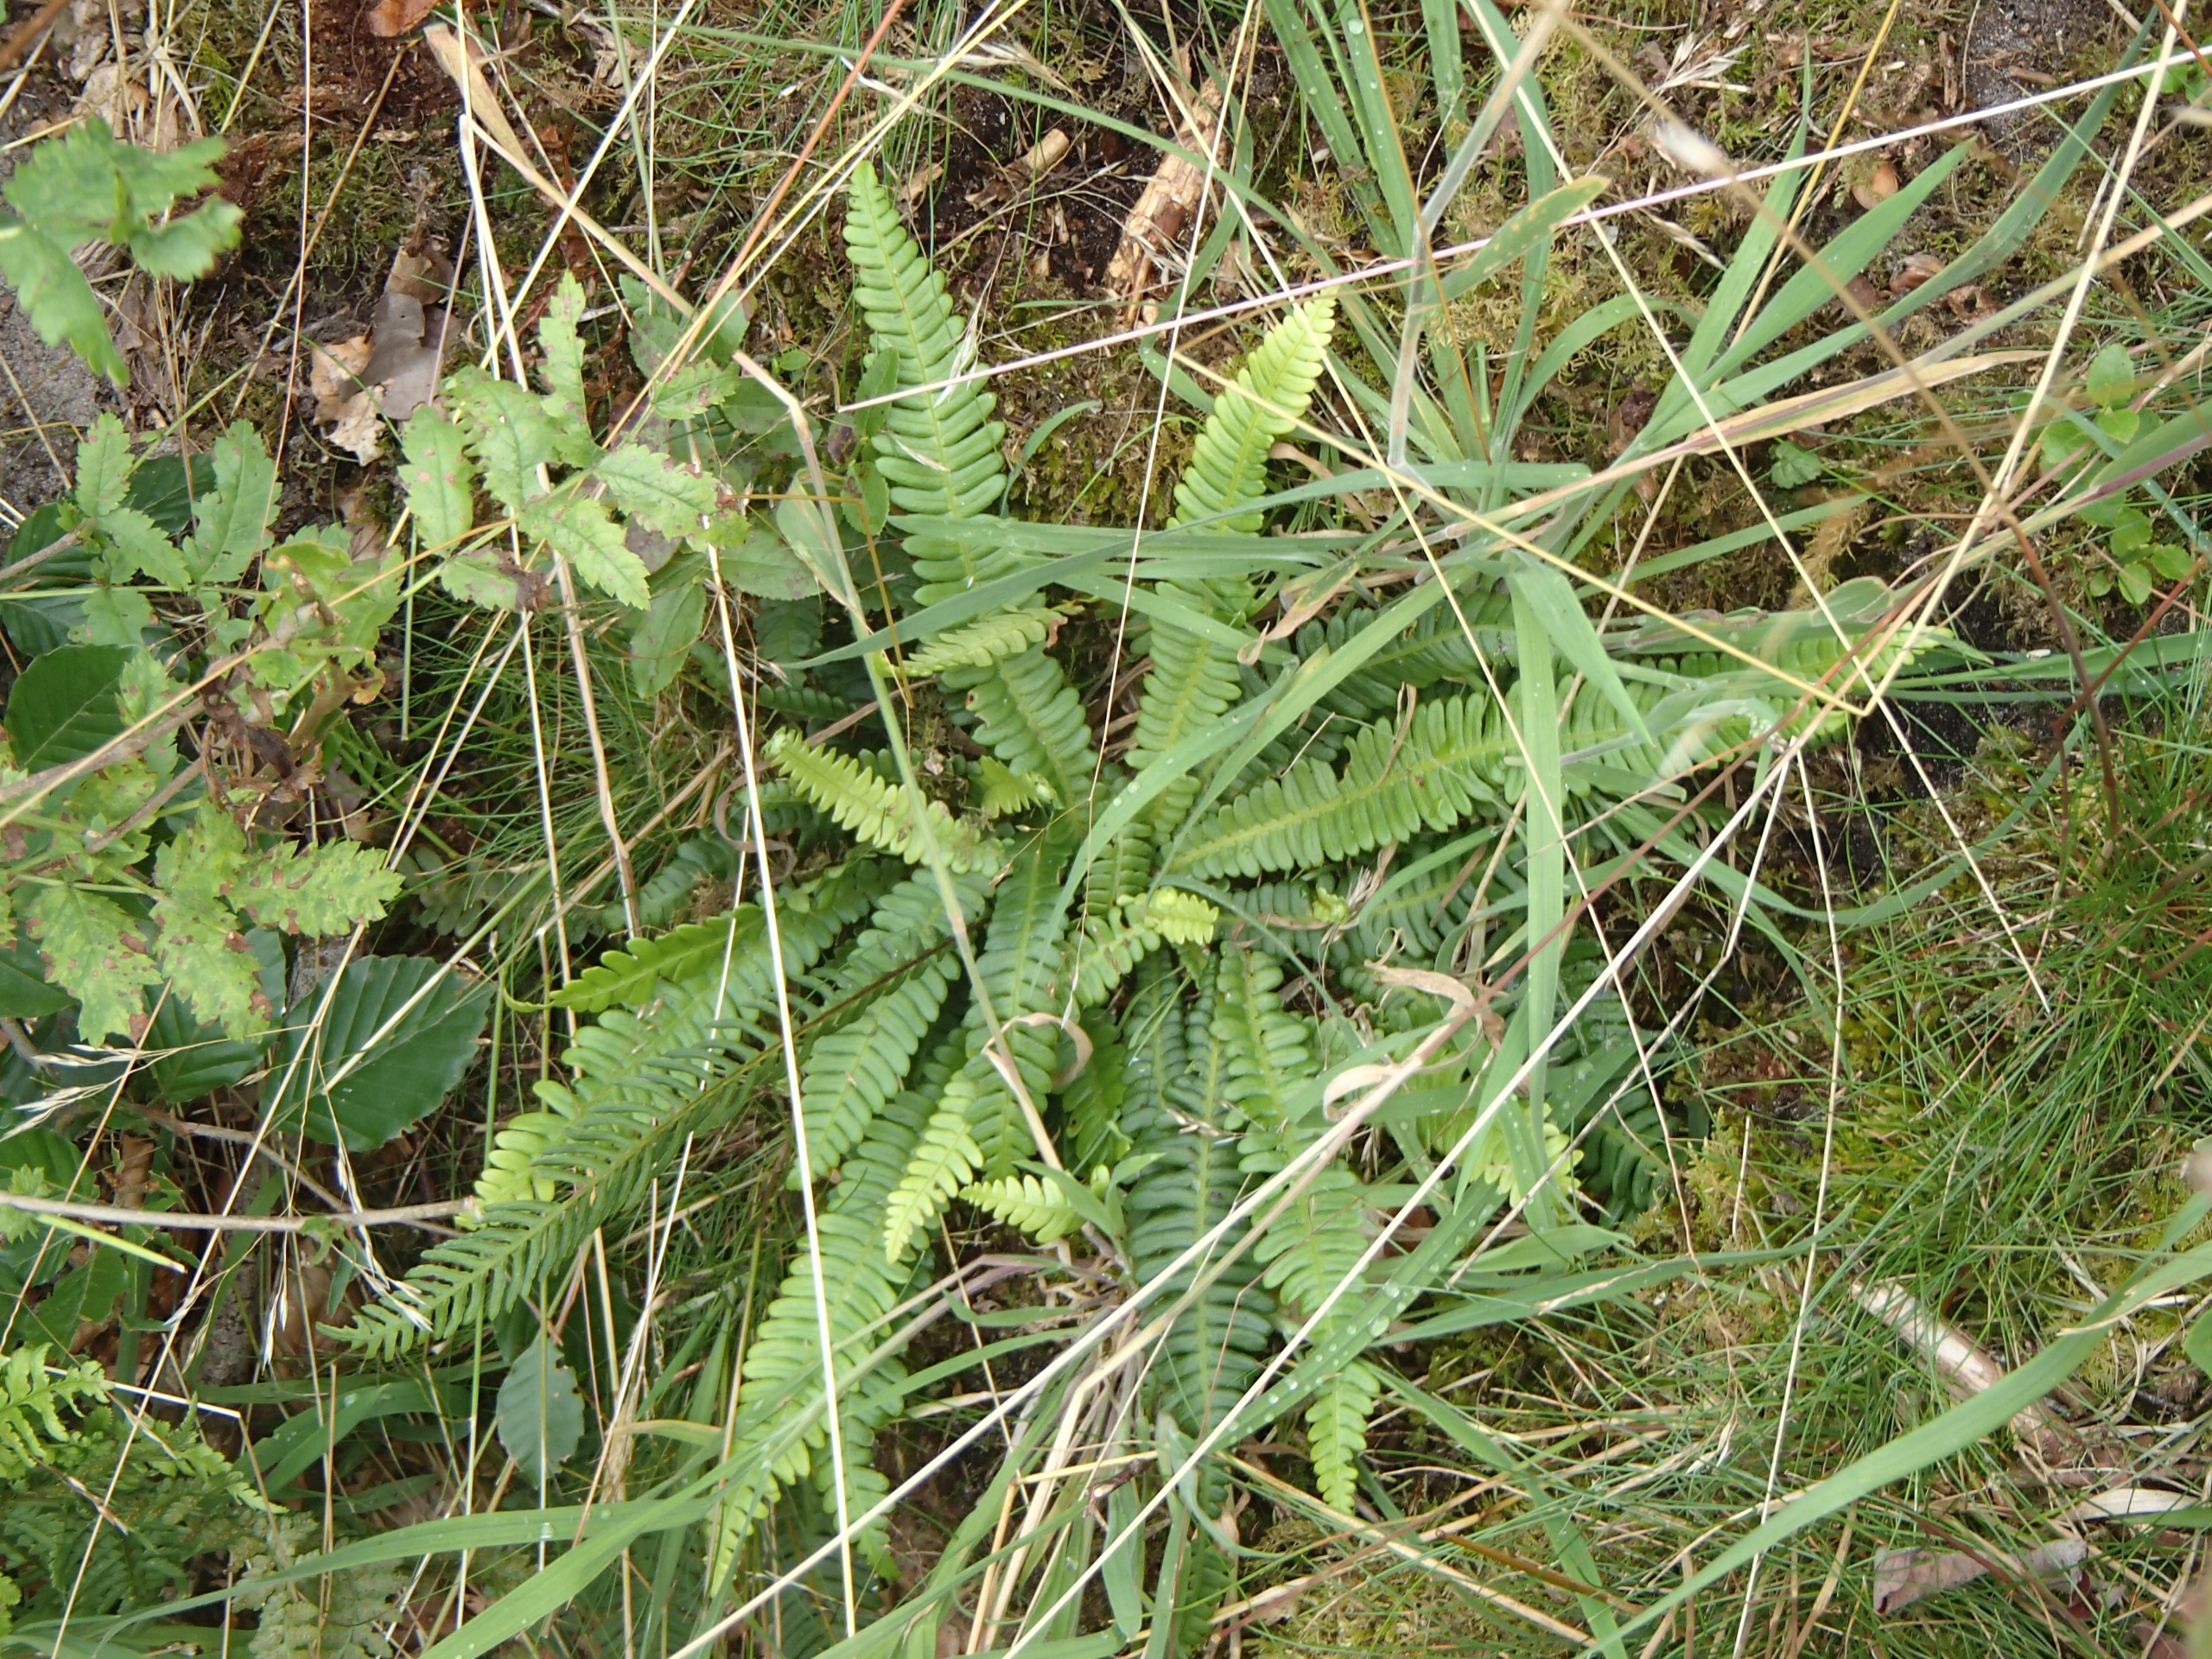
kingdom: Plantae
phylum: Tracheophyta
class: Polypodiopsida
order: Polypodiales
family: Blechnaceae
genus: Struthiopteris
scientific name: Struthiopteris spicant
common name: Kambregne
